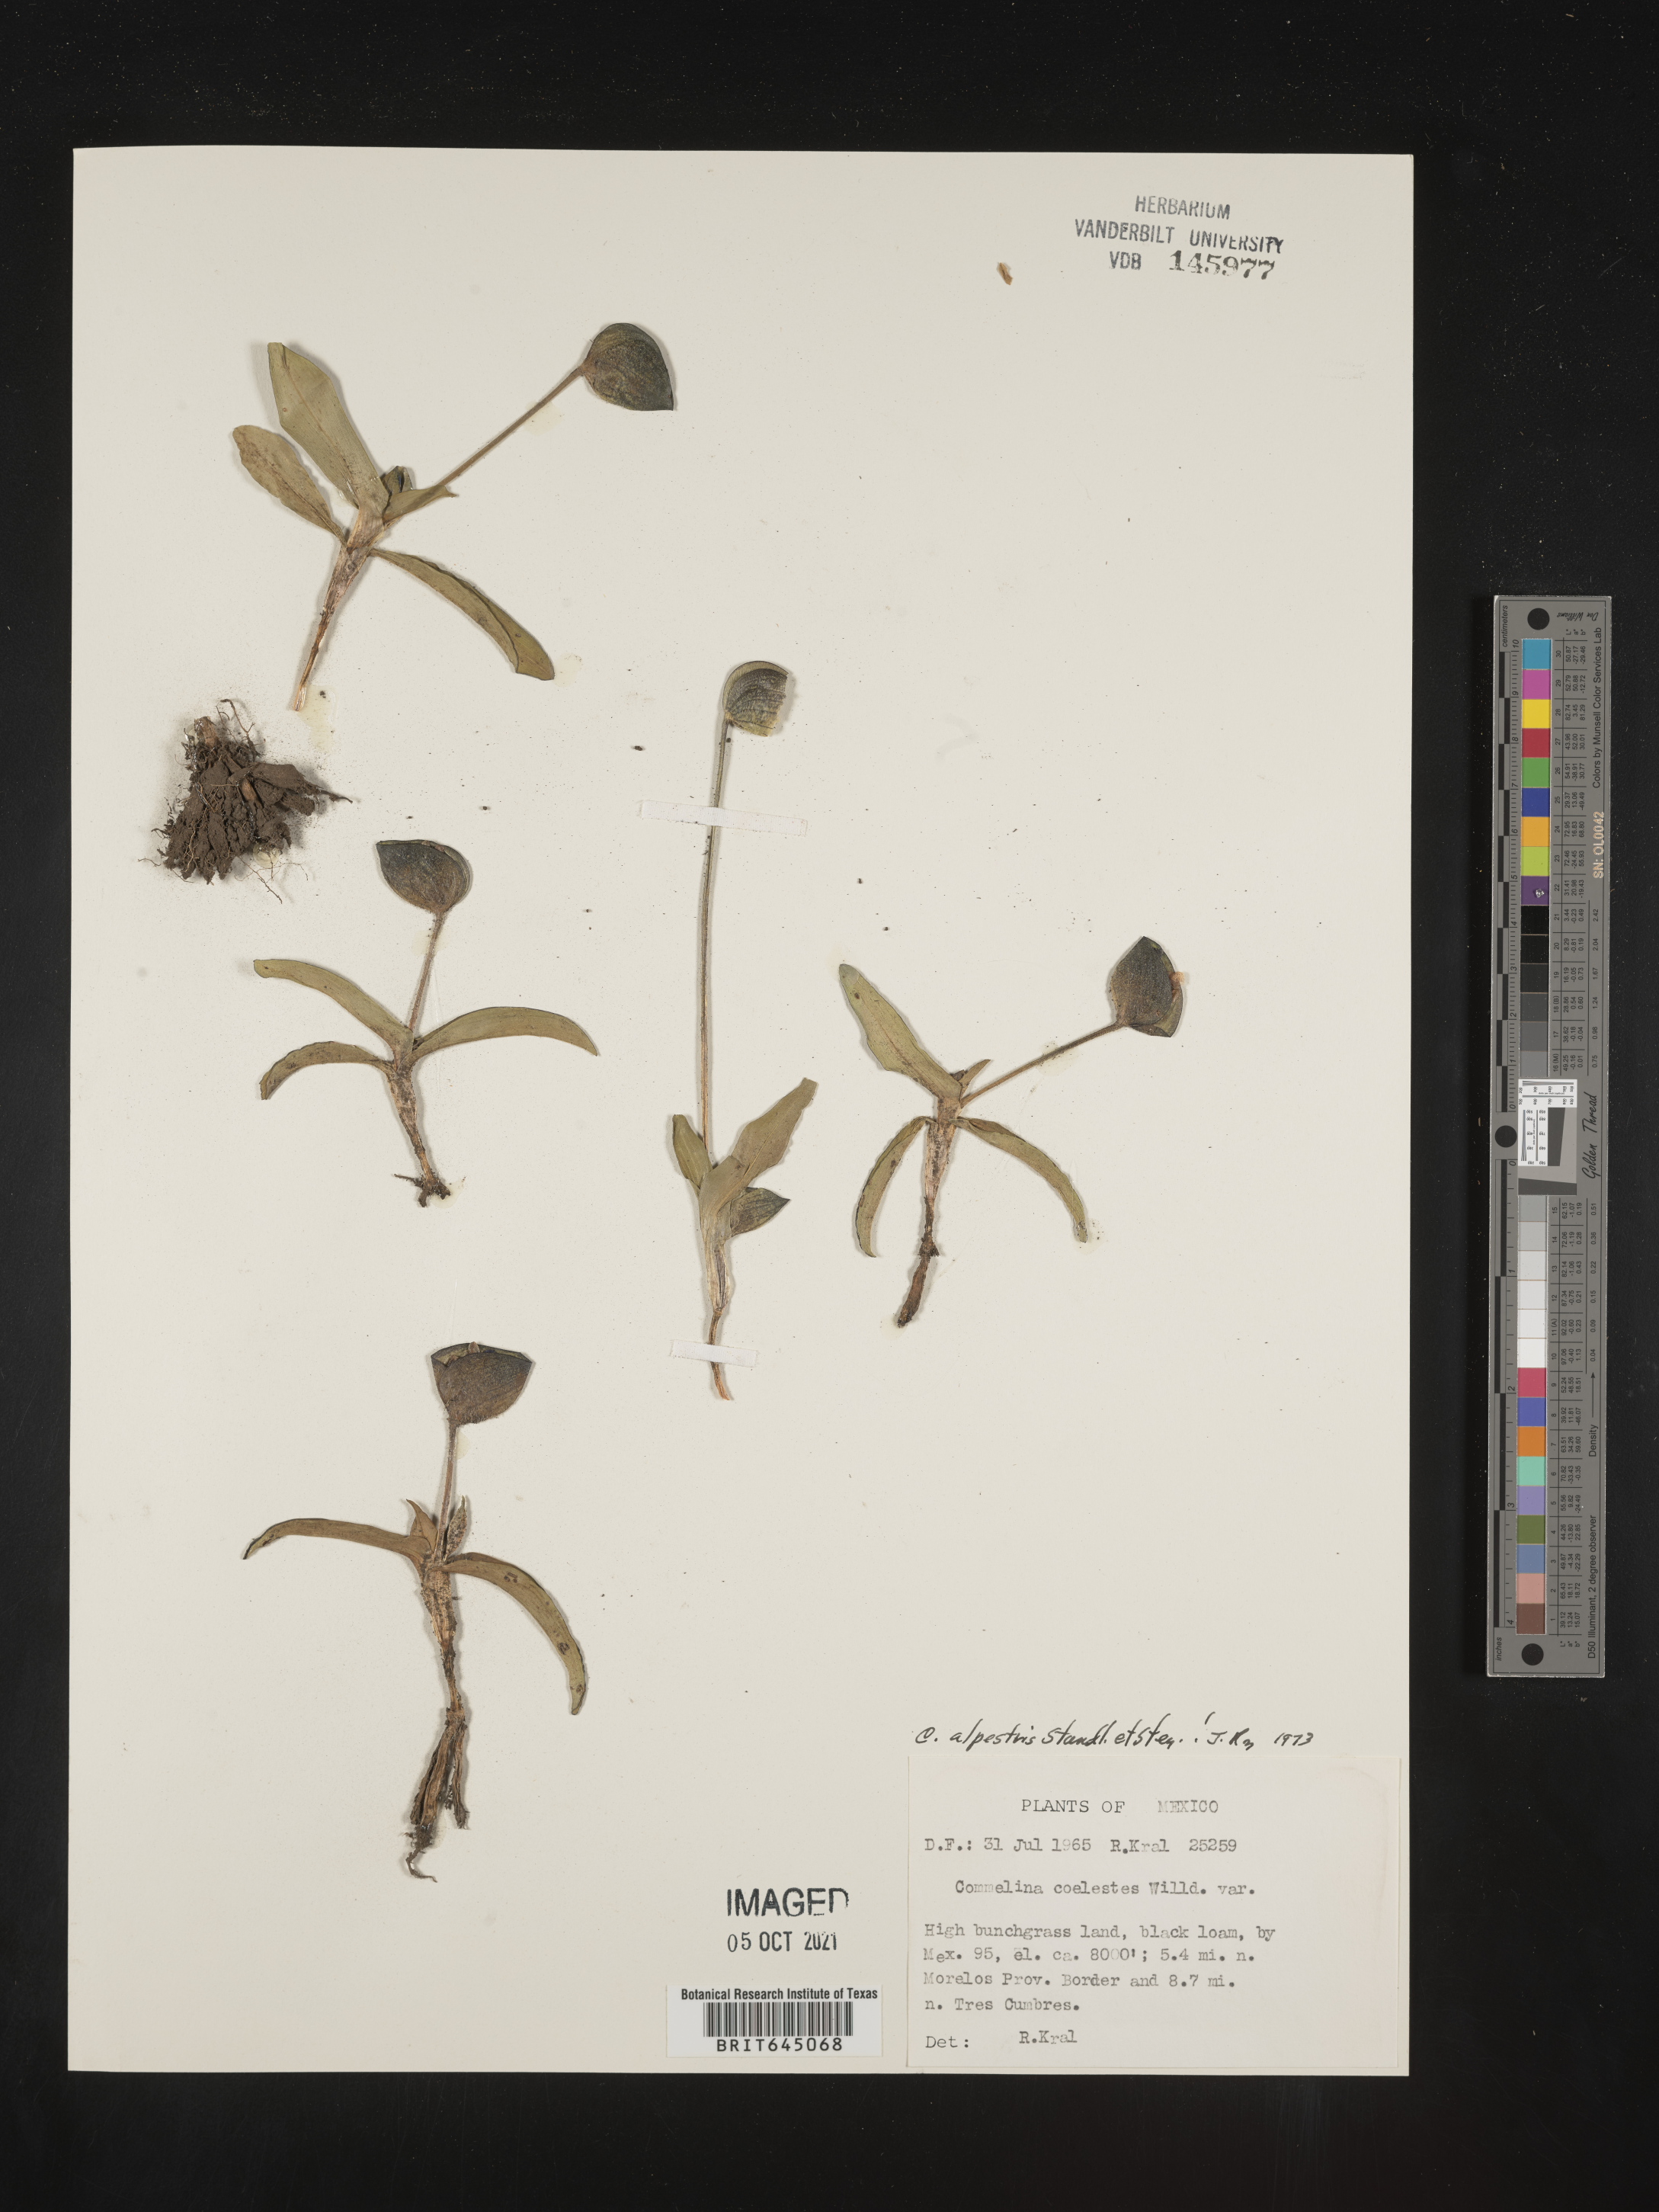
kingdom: Plantae
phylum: Tracheophyta
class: Liliopsida
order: Commelinales
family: Commelinaceae
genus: Commelina
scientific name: Commelina
